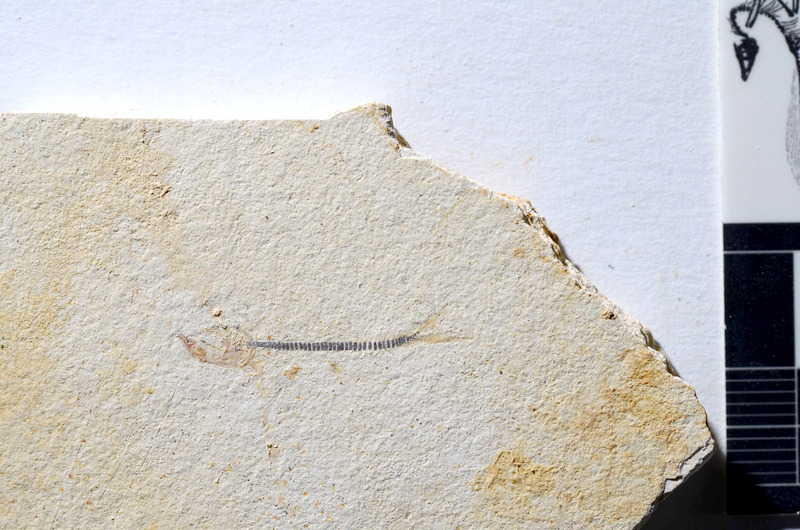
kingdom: Animalia
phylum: Chordata
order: Salmoniformes
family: Orthogonikleithridae
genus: Orthogonikleithrus
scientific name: Orthogonikleithrus hoelli
